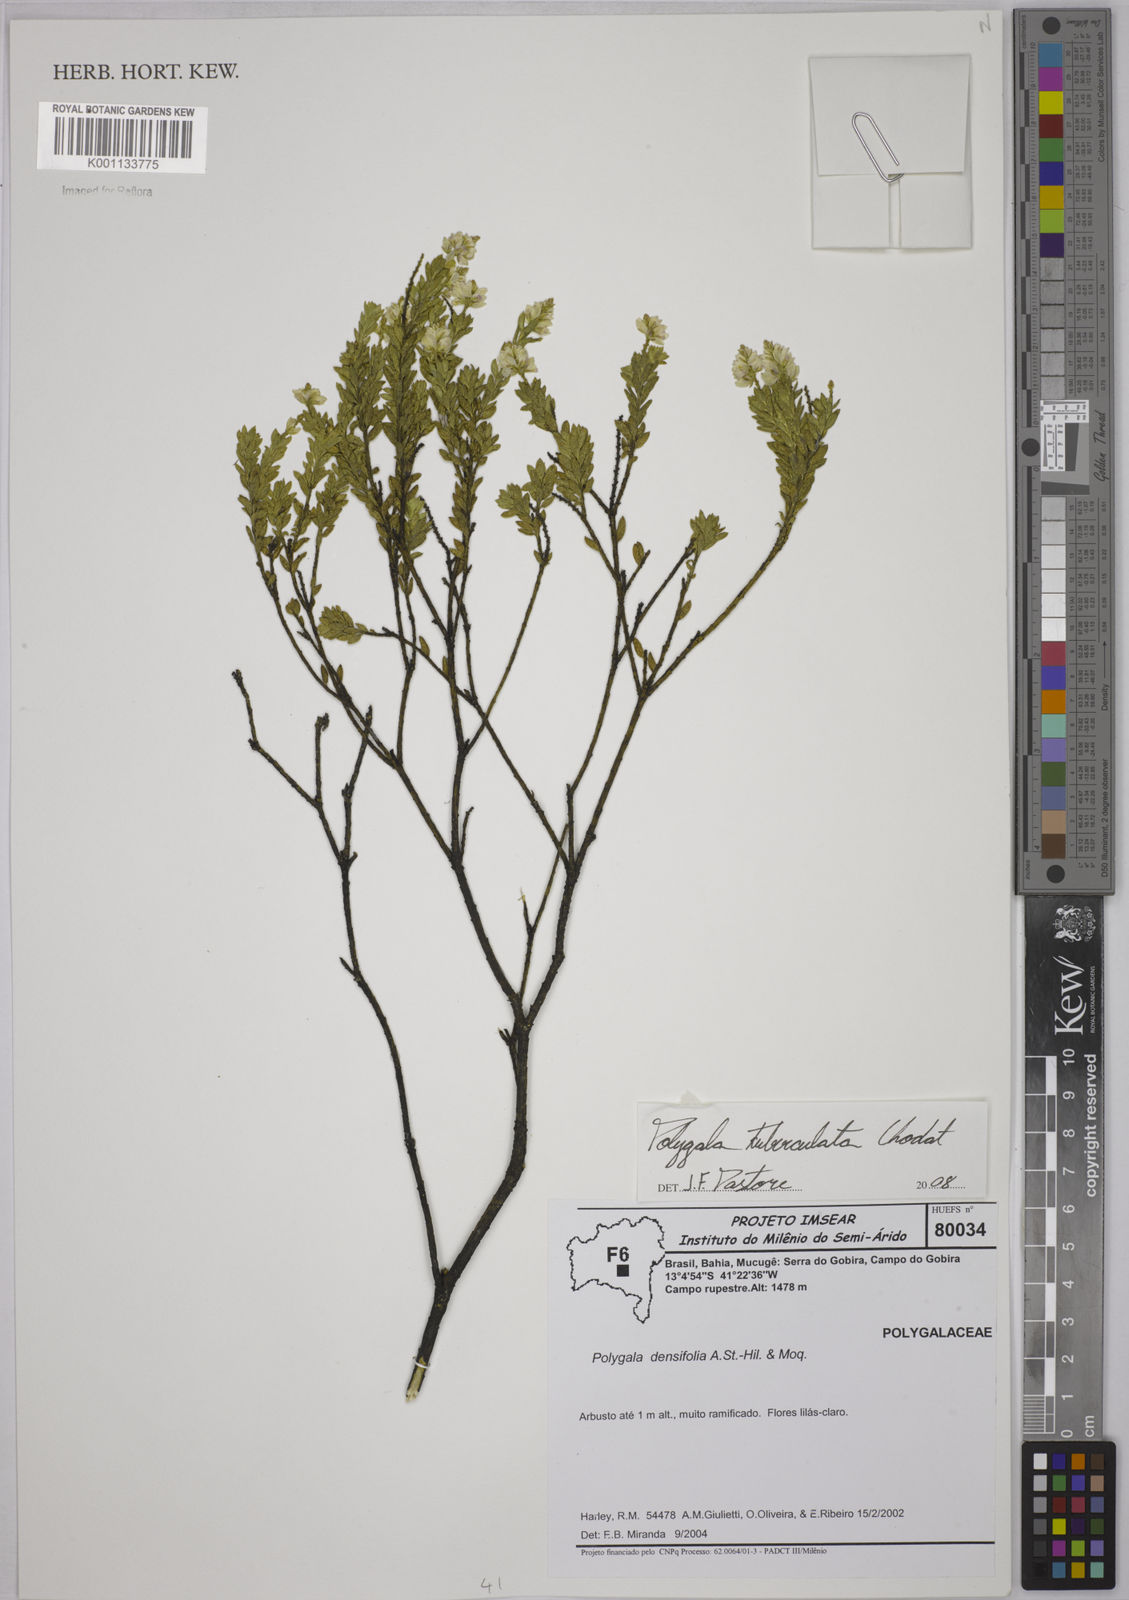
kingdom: Plantae
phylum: Tracheophyta
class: Magnoliopsida
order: Fabales
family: Polygalaceae
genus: Polygala
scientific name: Polygala tuberculata
